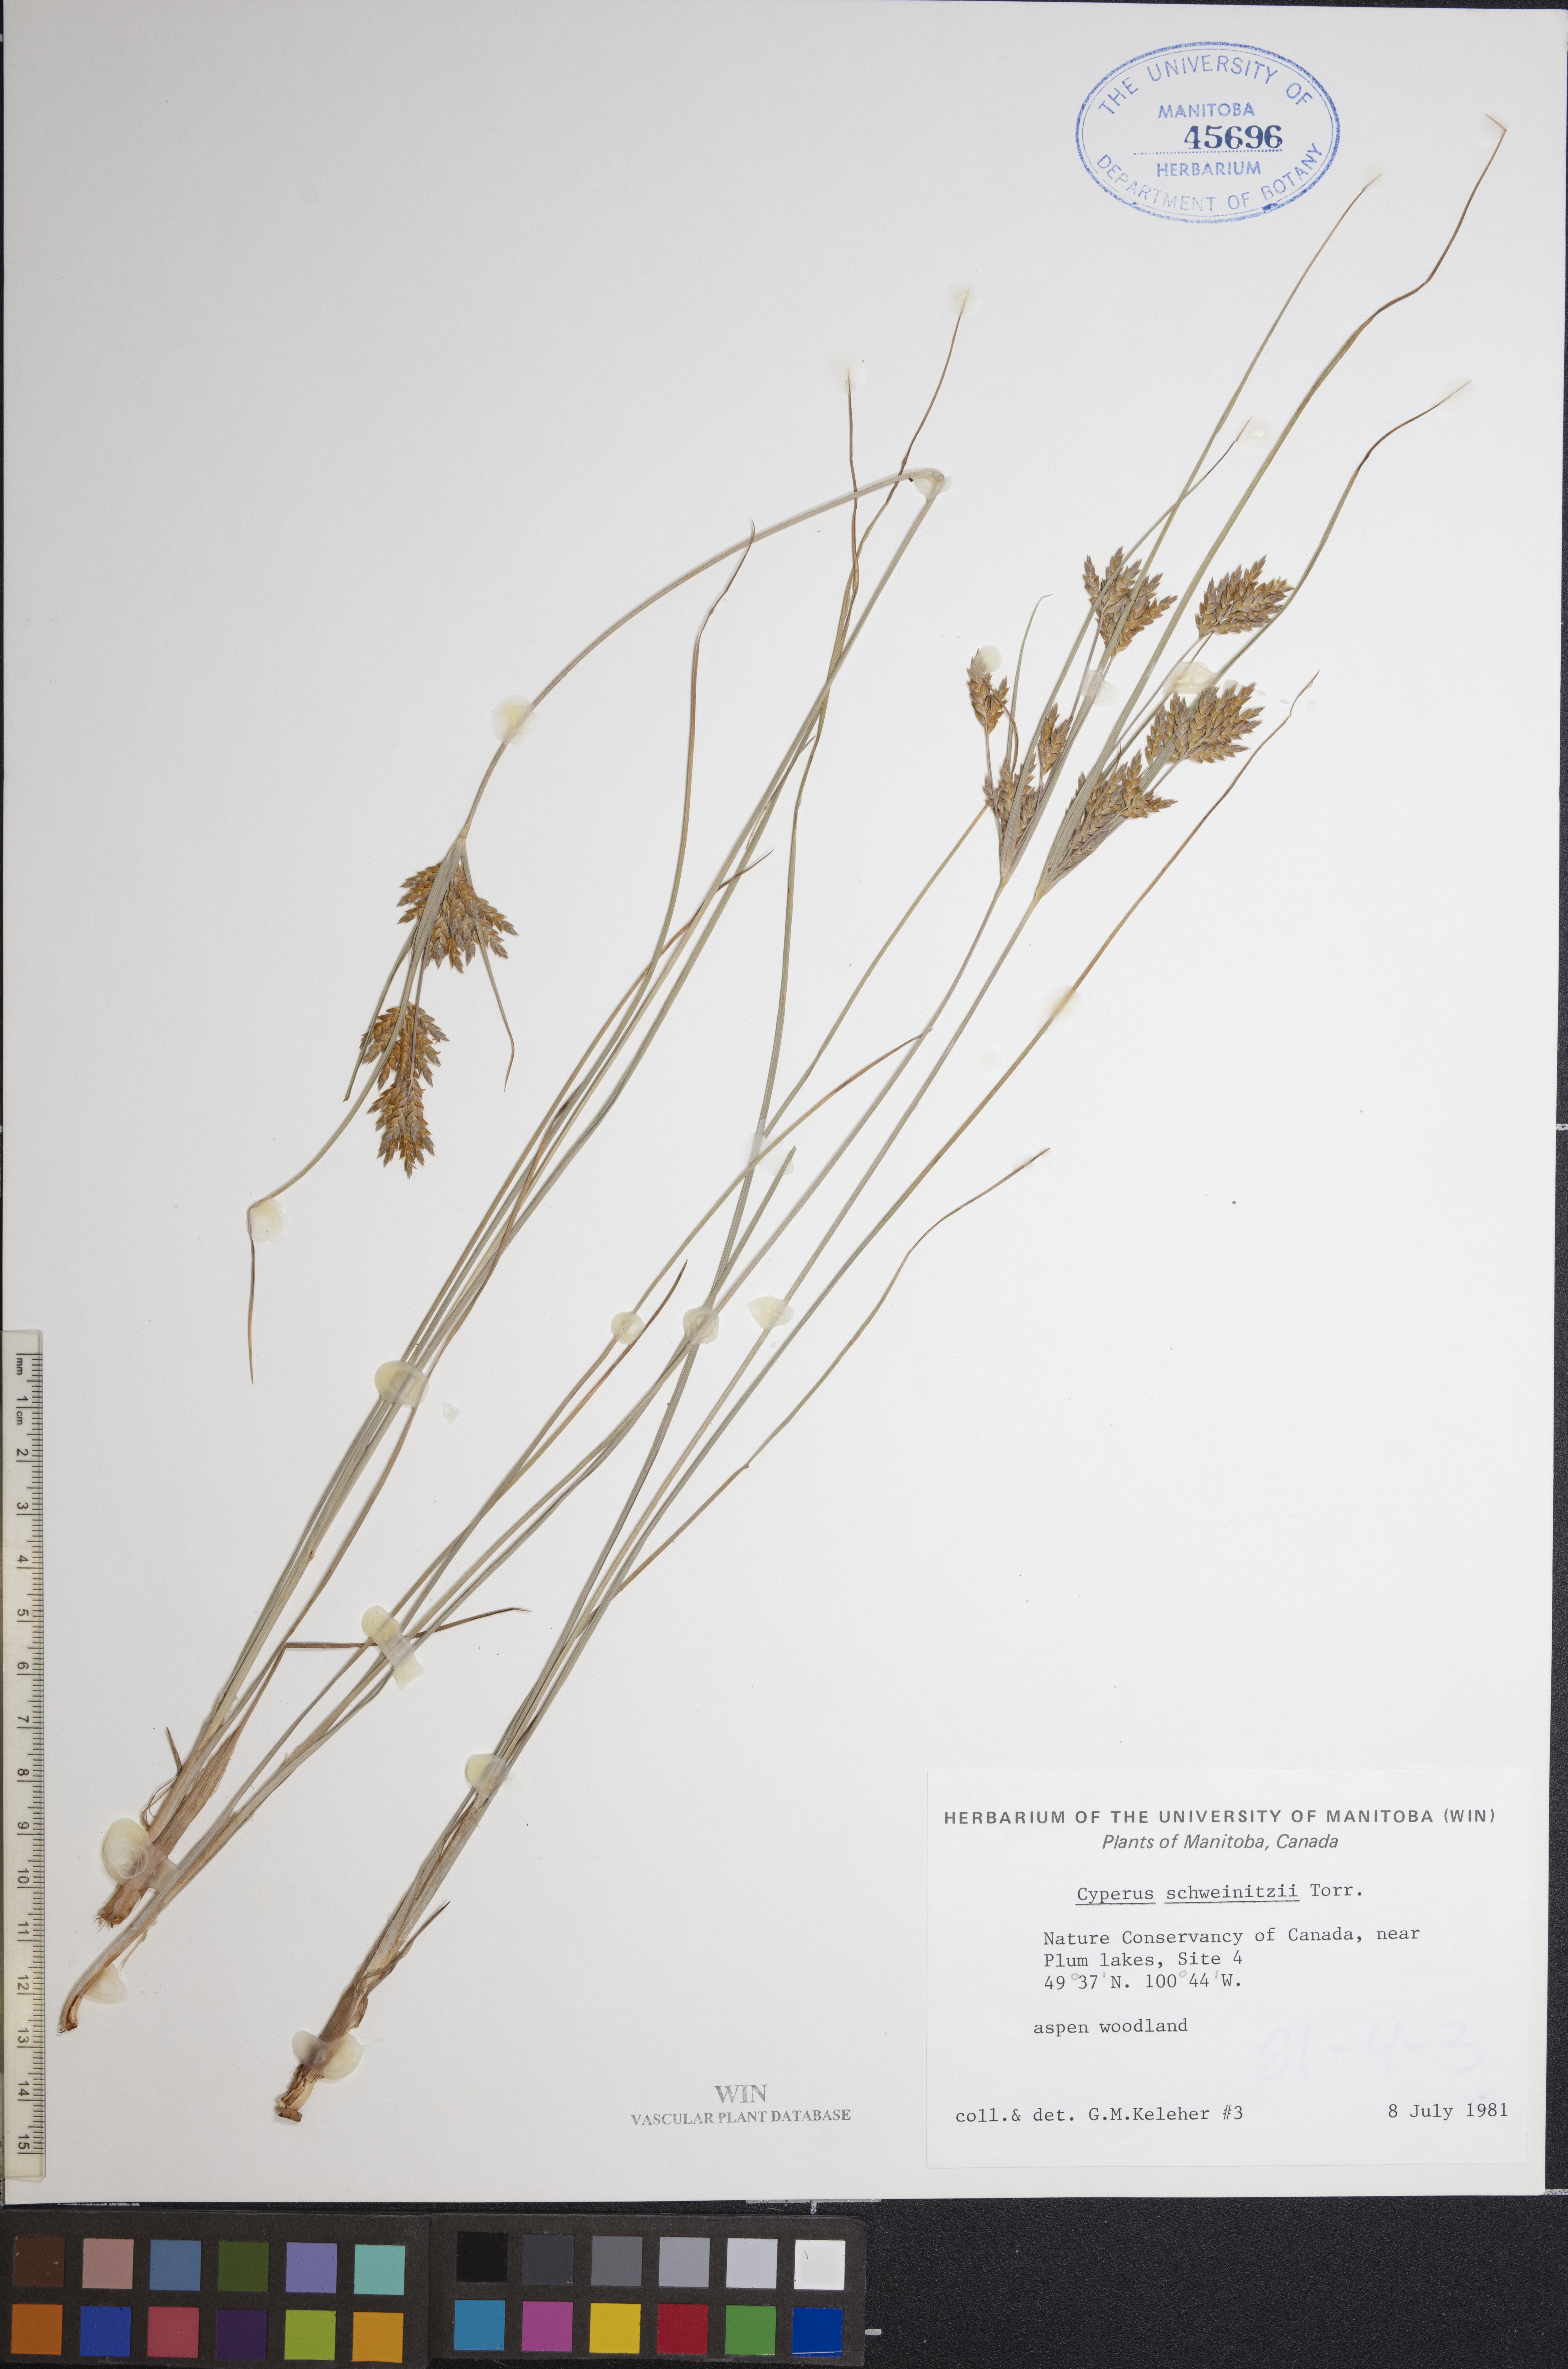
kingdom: Plantae
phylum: Tracheophyta
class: Liliopsida
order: Poales
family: Cyperaceae
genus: Cyperus
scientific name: Cyperus schweinitzii
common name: Schweinitz's cyperus
